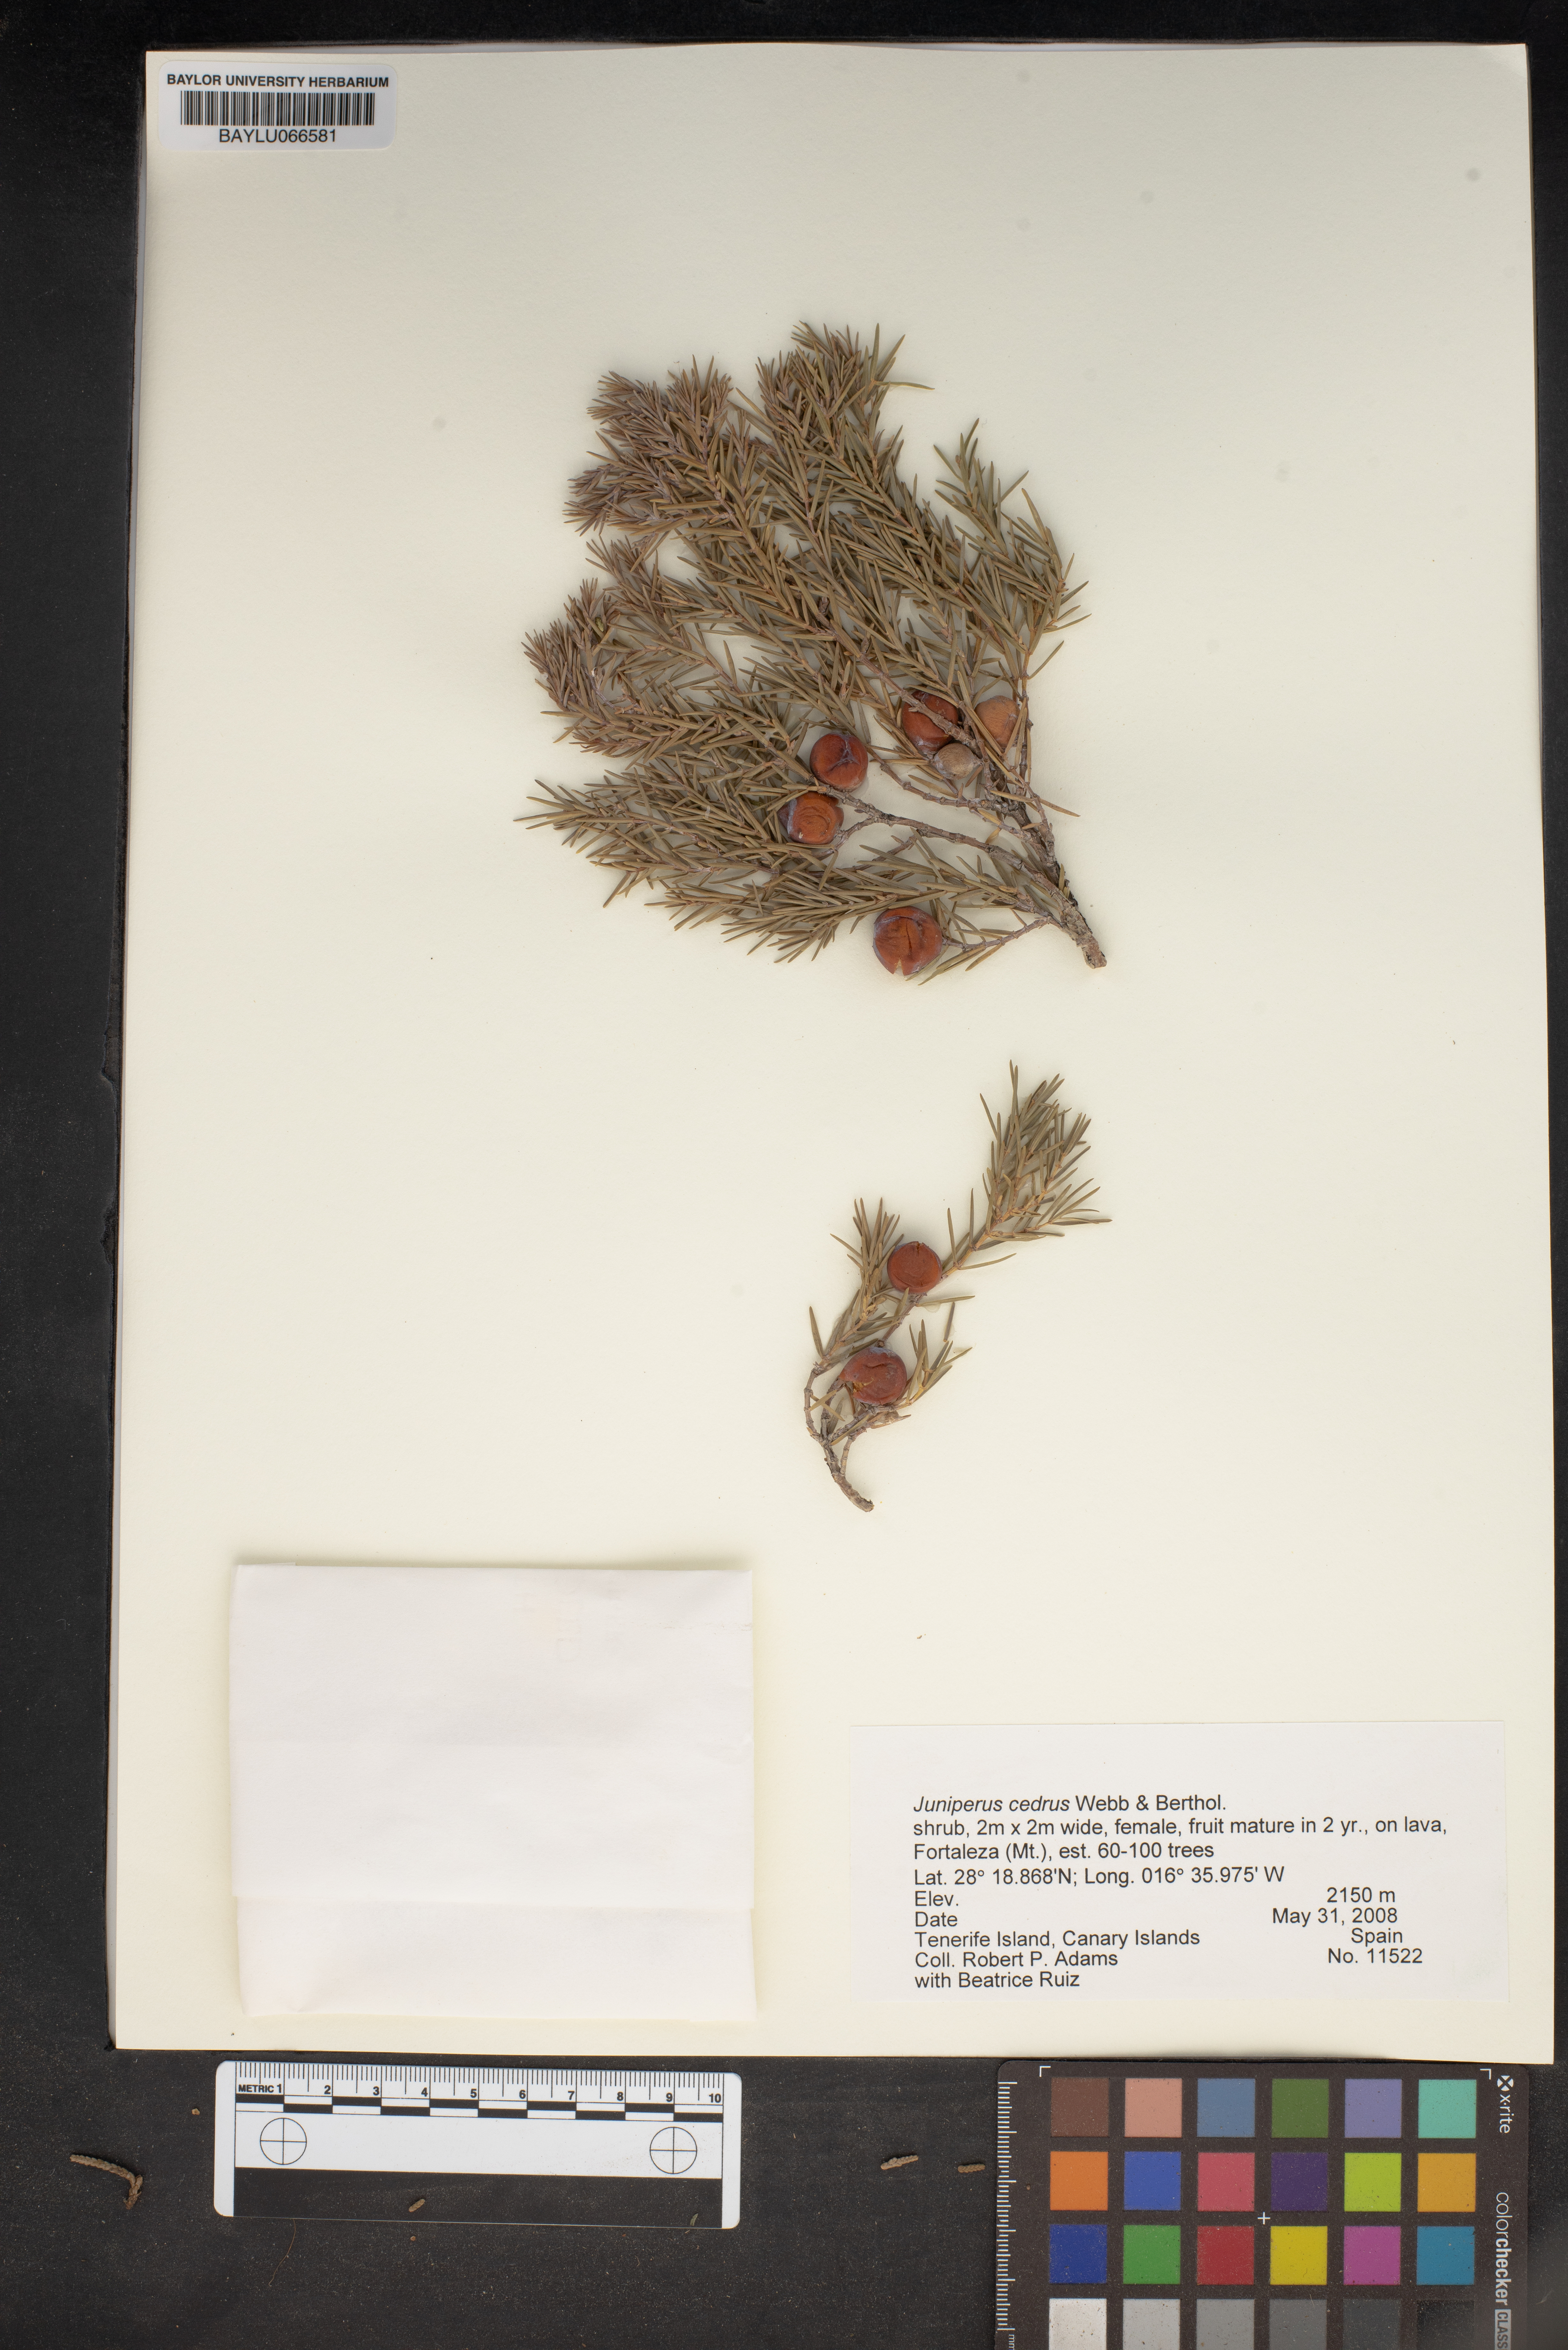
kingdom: Plantae
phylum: Tracheophyta
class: Pinopsida
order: Pinales
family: Cupressaceae
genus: Juniperus
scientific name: Juniperus cedrus
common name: Canary islands juniper
